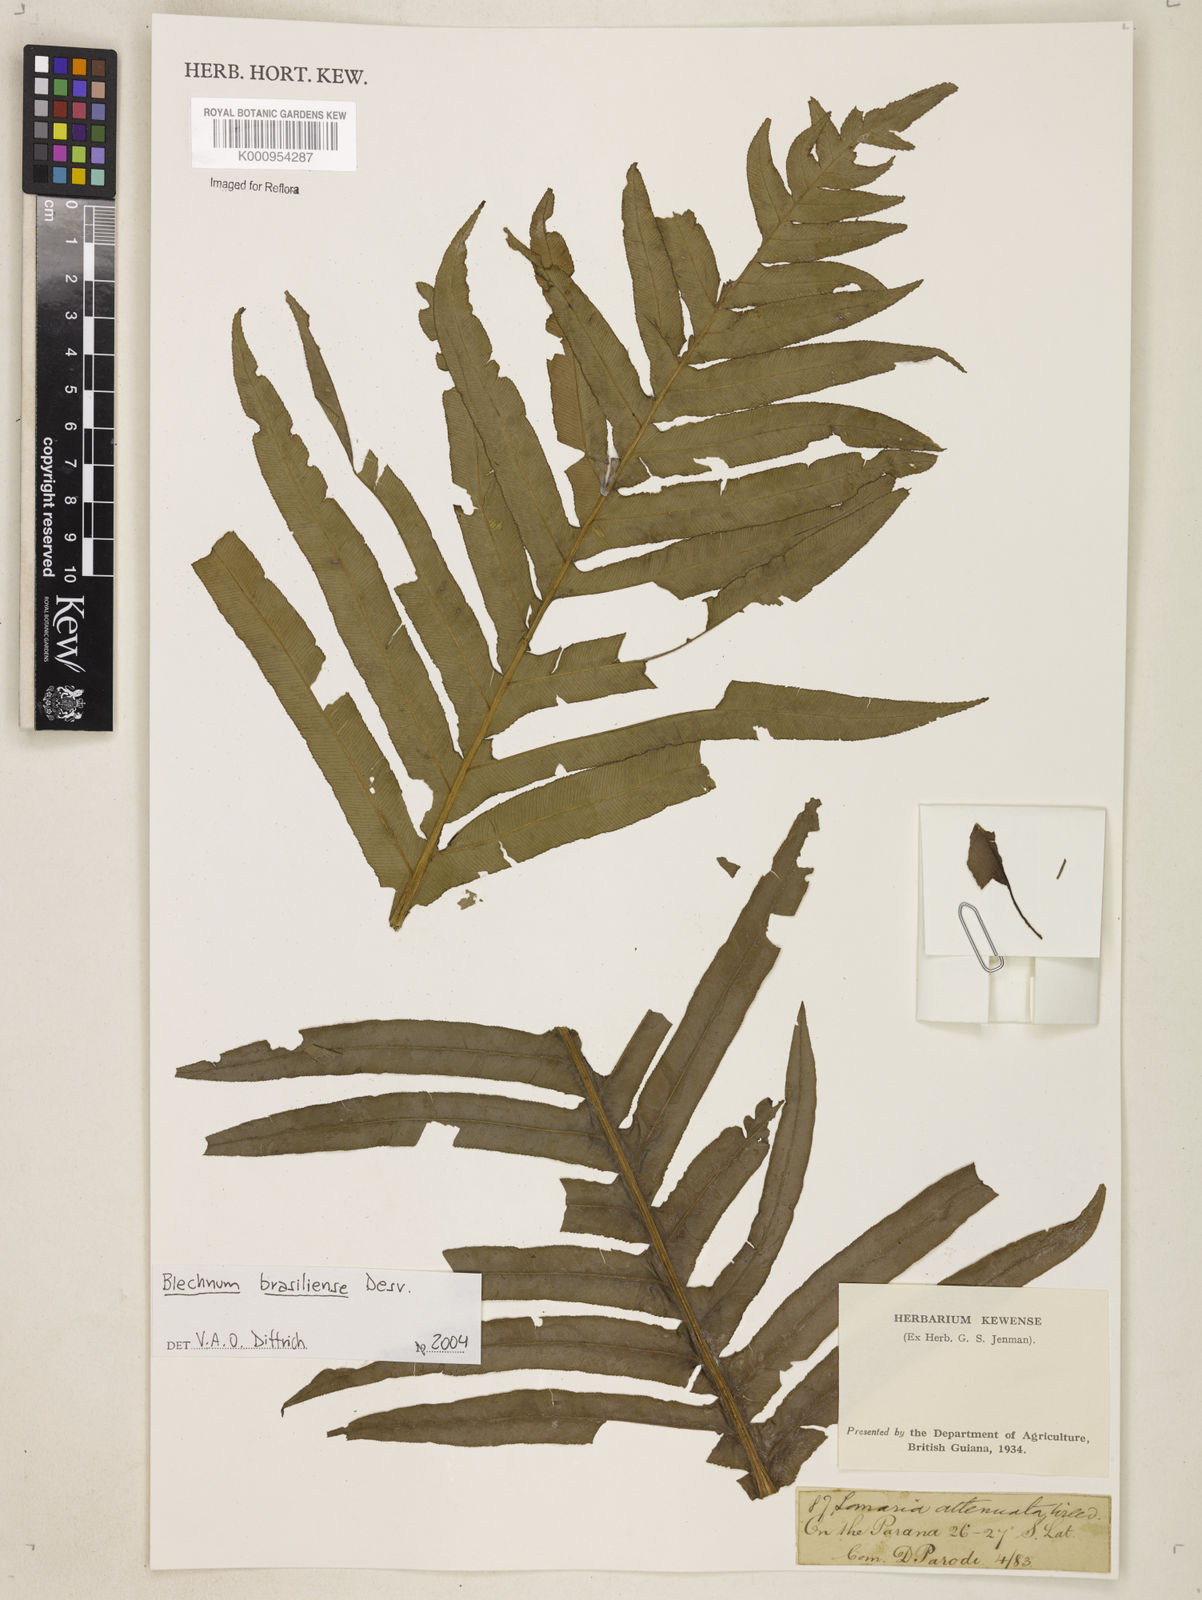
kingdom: Plantae
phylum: Tracheophyta
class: Polypodiopsida
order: Polypodiales
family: Blechnaceae
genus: Neoblechnum
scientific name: Neoblechnum brasiliense
